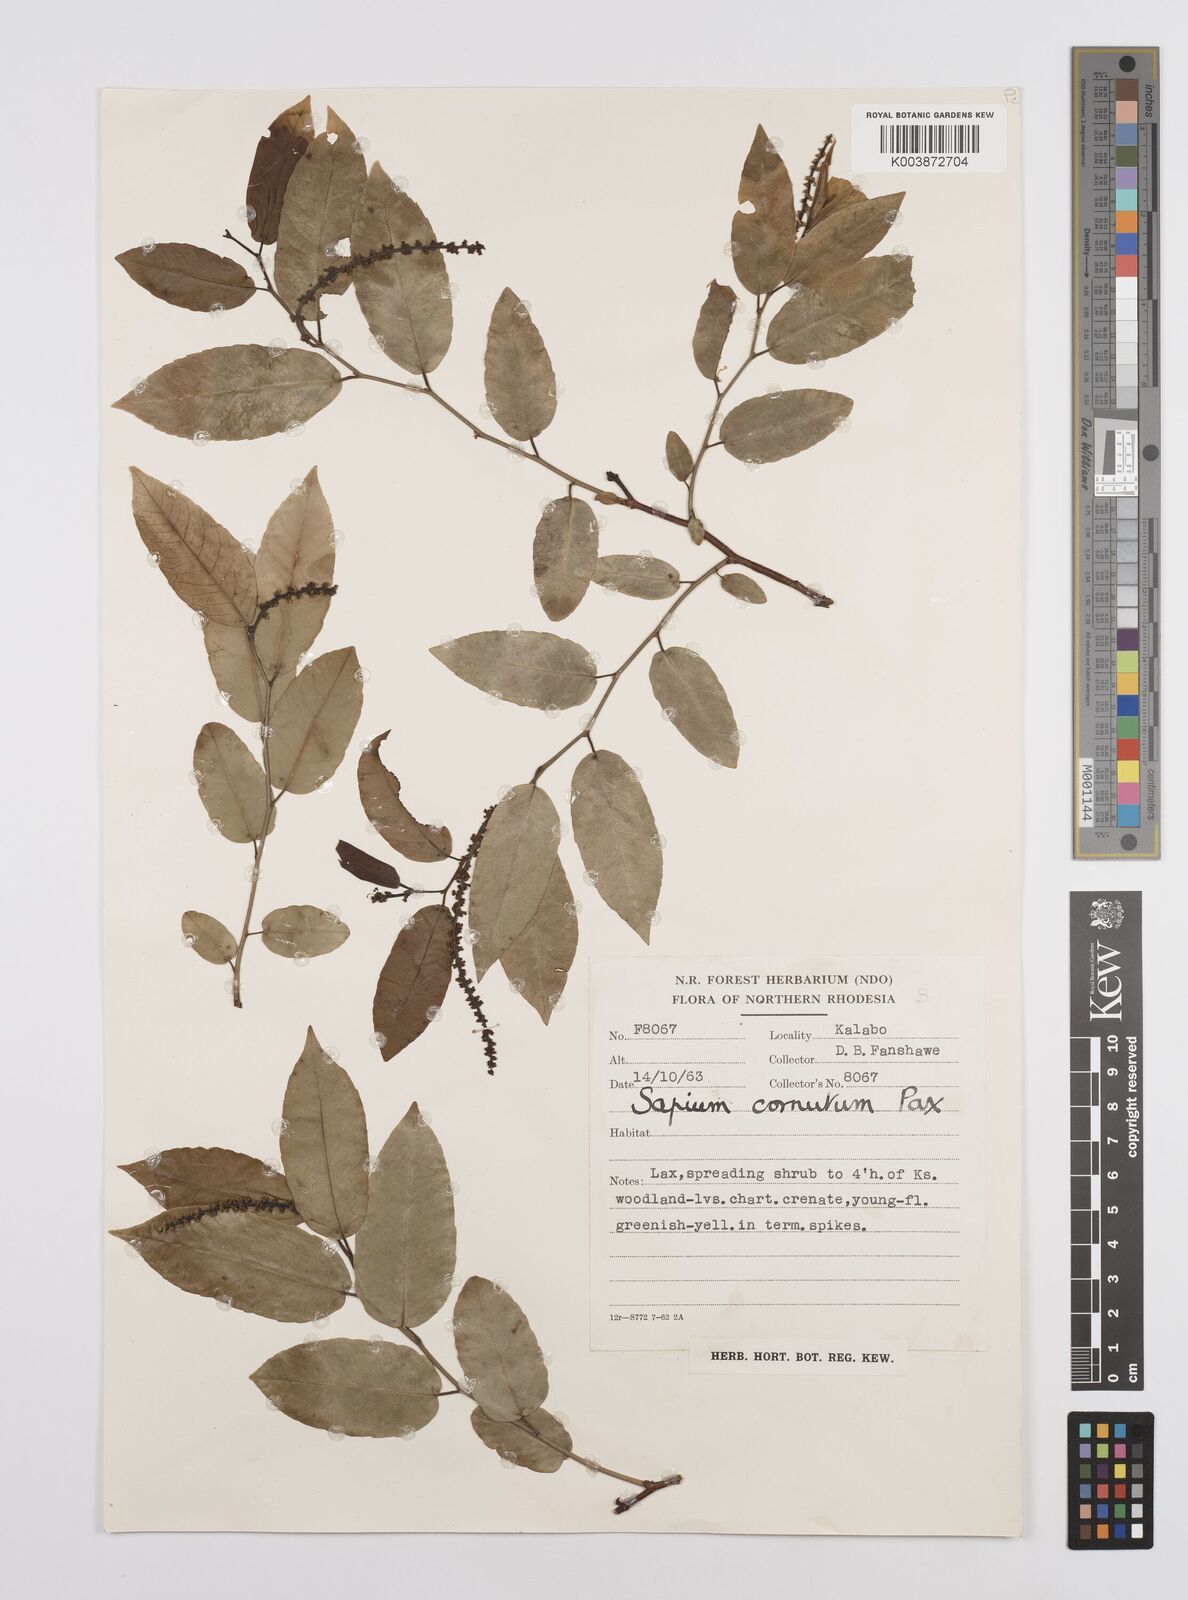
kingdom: Plantae
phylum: Tracheophyta
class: Magnoliopsida
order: Malpighiales
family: Euphorbiaceae
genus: Sclerocroton
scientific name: Sclerocroton cornutus
